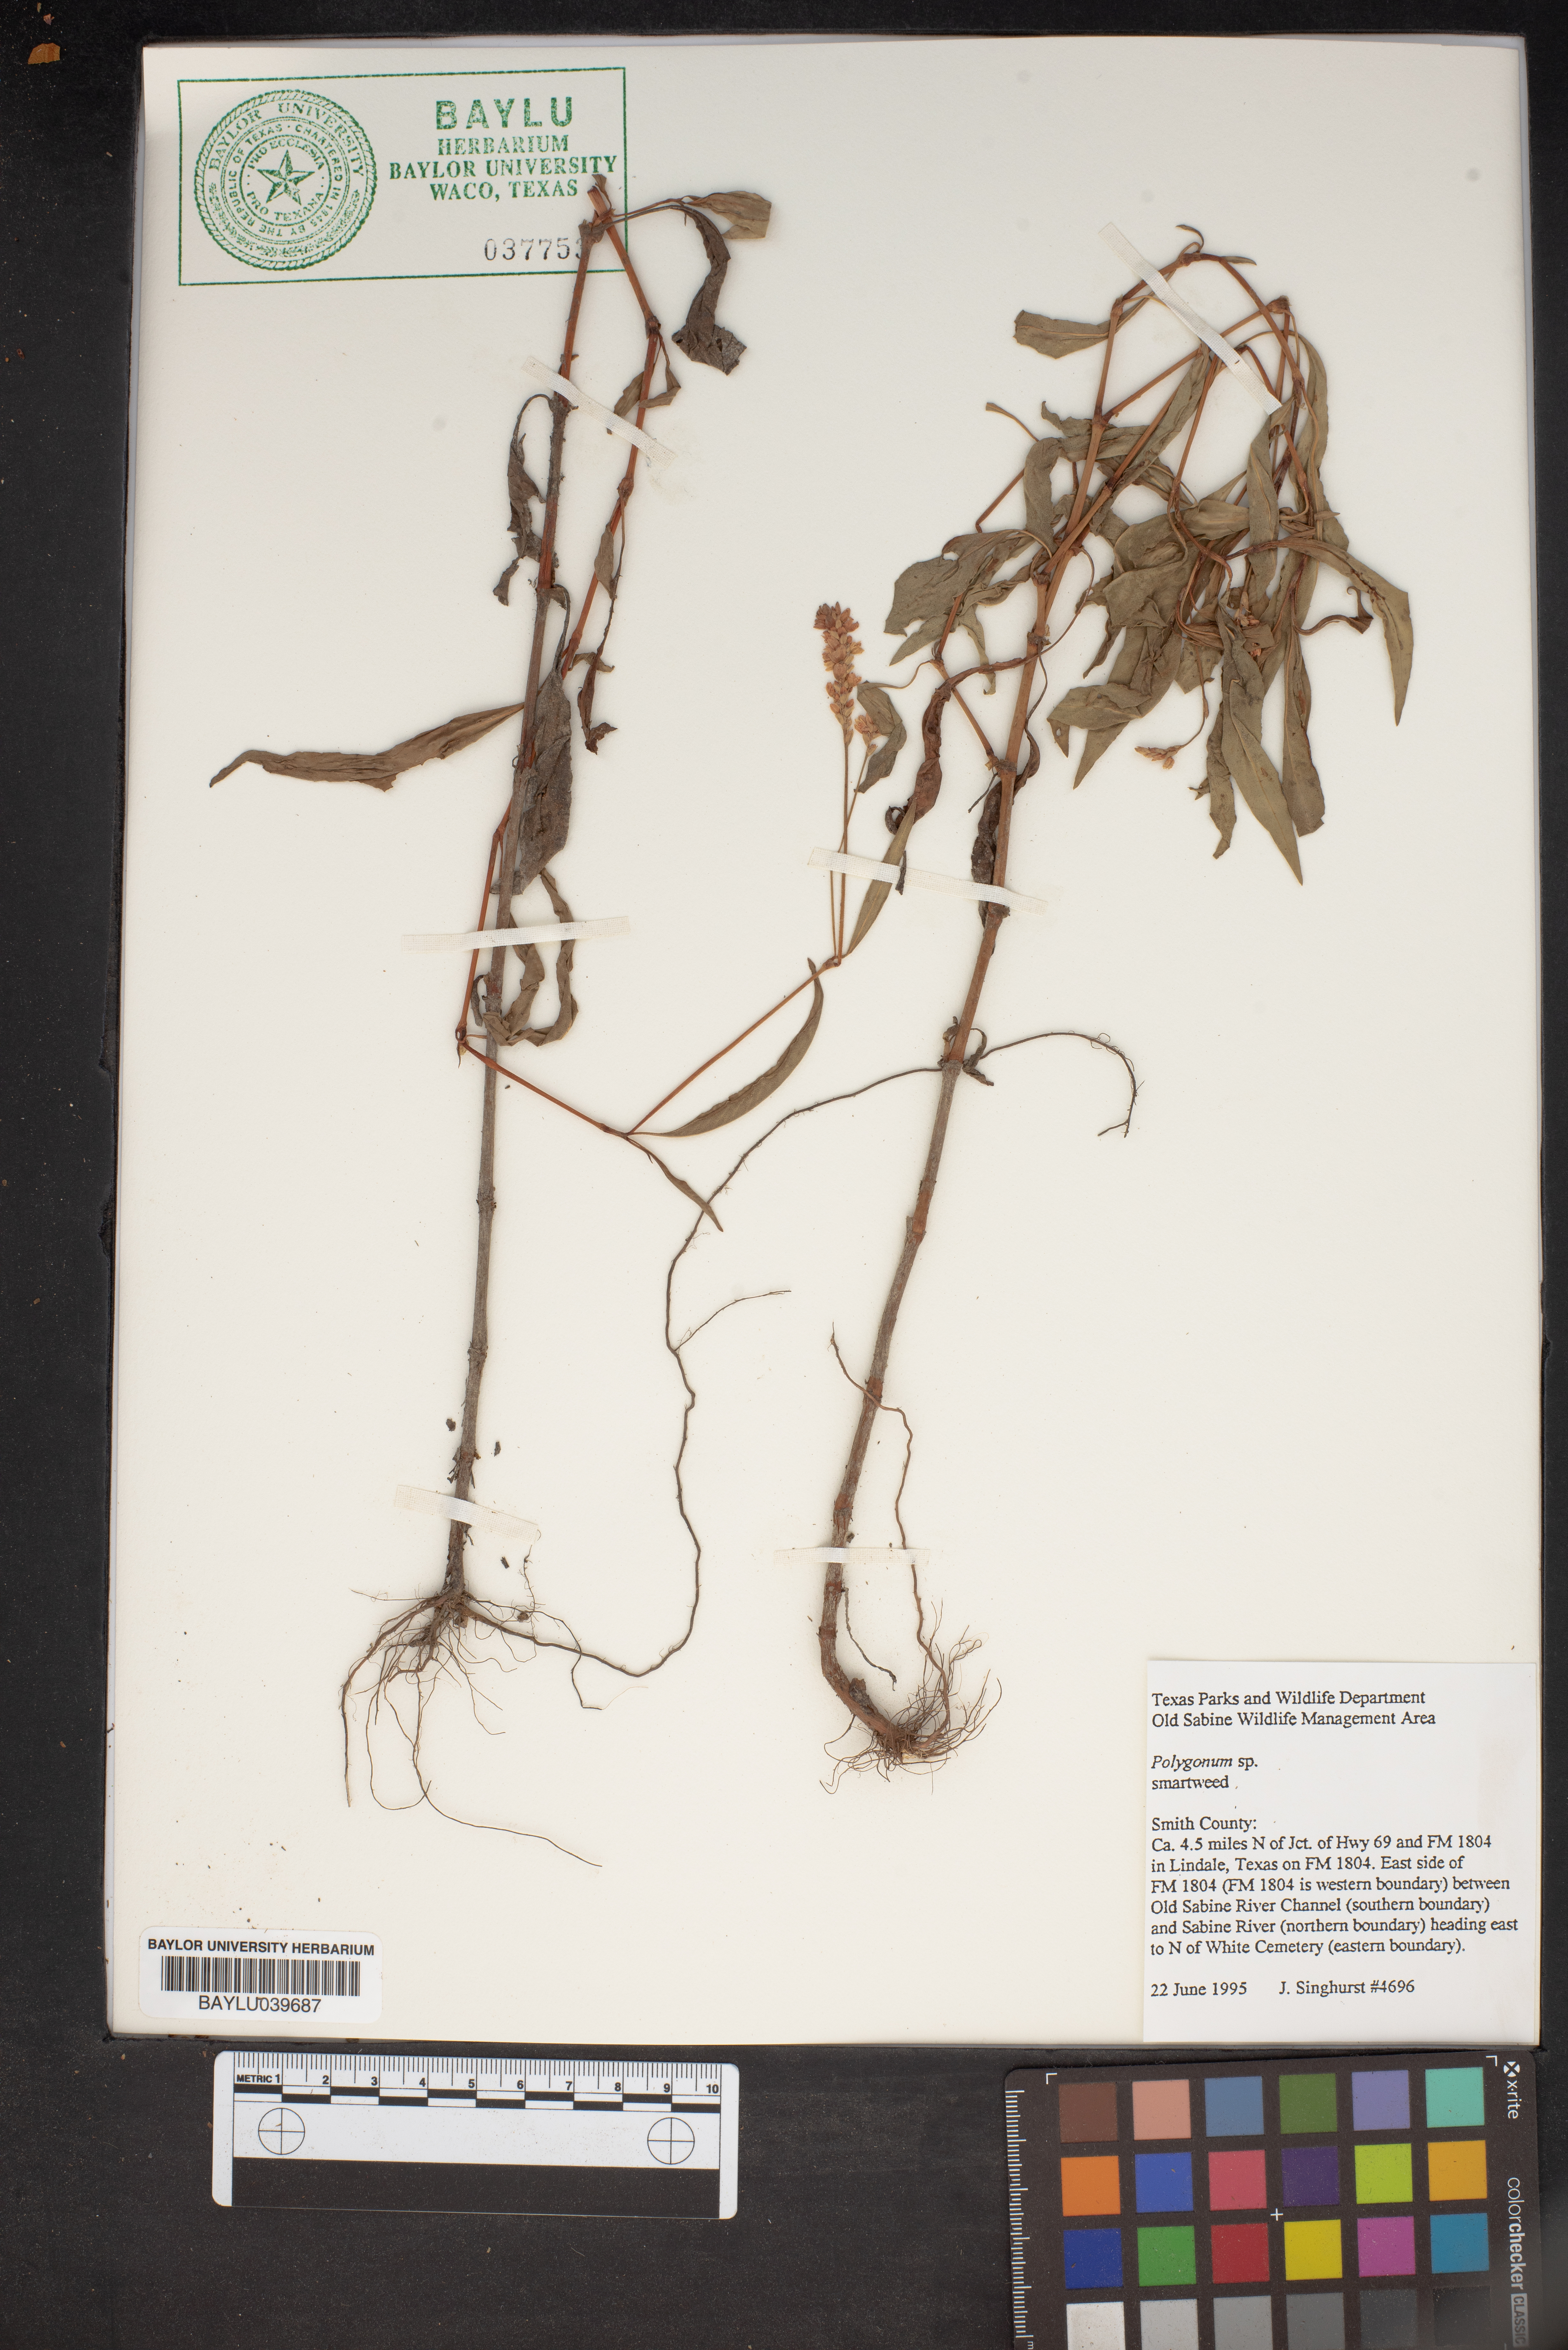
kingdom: Plantae
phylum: Tracheophyta
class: Magnoliopsida
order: Caryophyllales
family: Polygonaceae
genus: Polygonum
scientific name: Polygonum
